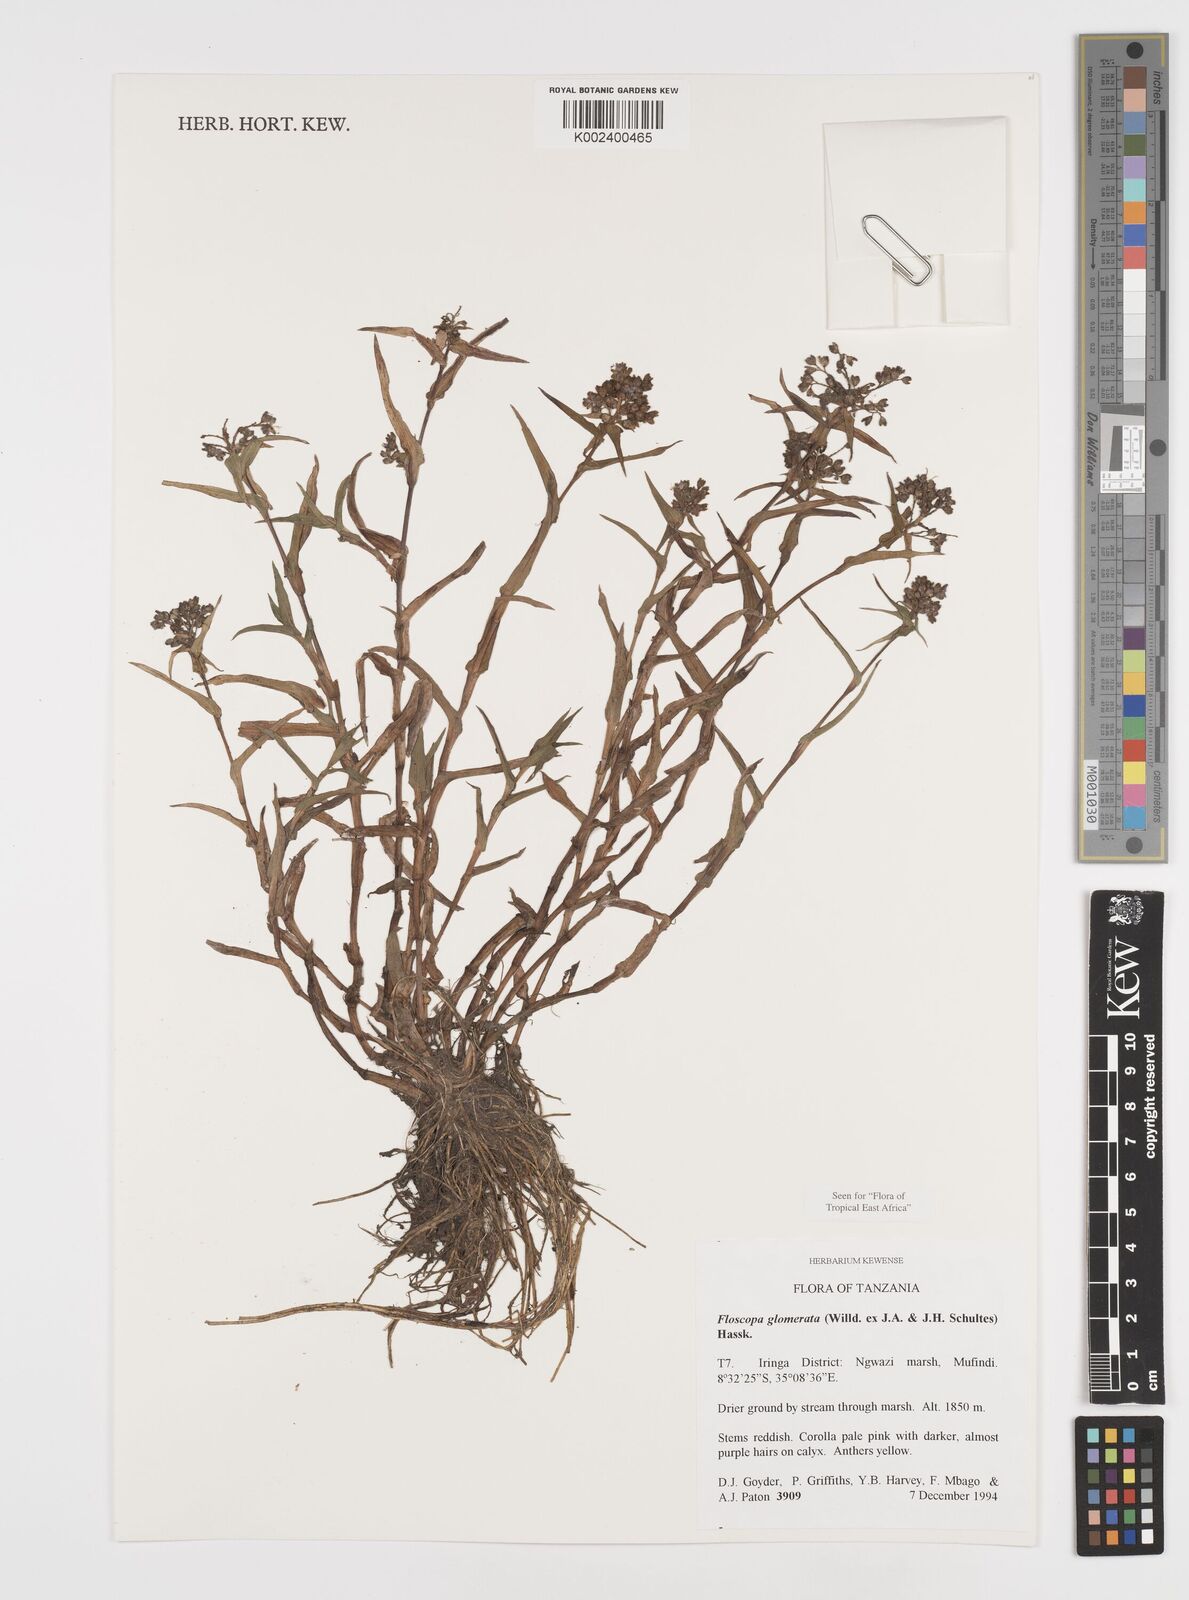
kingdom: Plantae
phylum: Tracheophyta
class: Liliopsida
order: Commelinales
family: Commelinaceae
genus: Floscopa
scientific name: Floscopa glomerata
